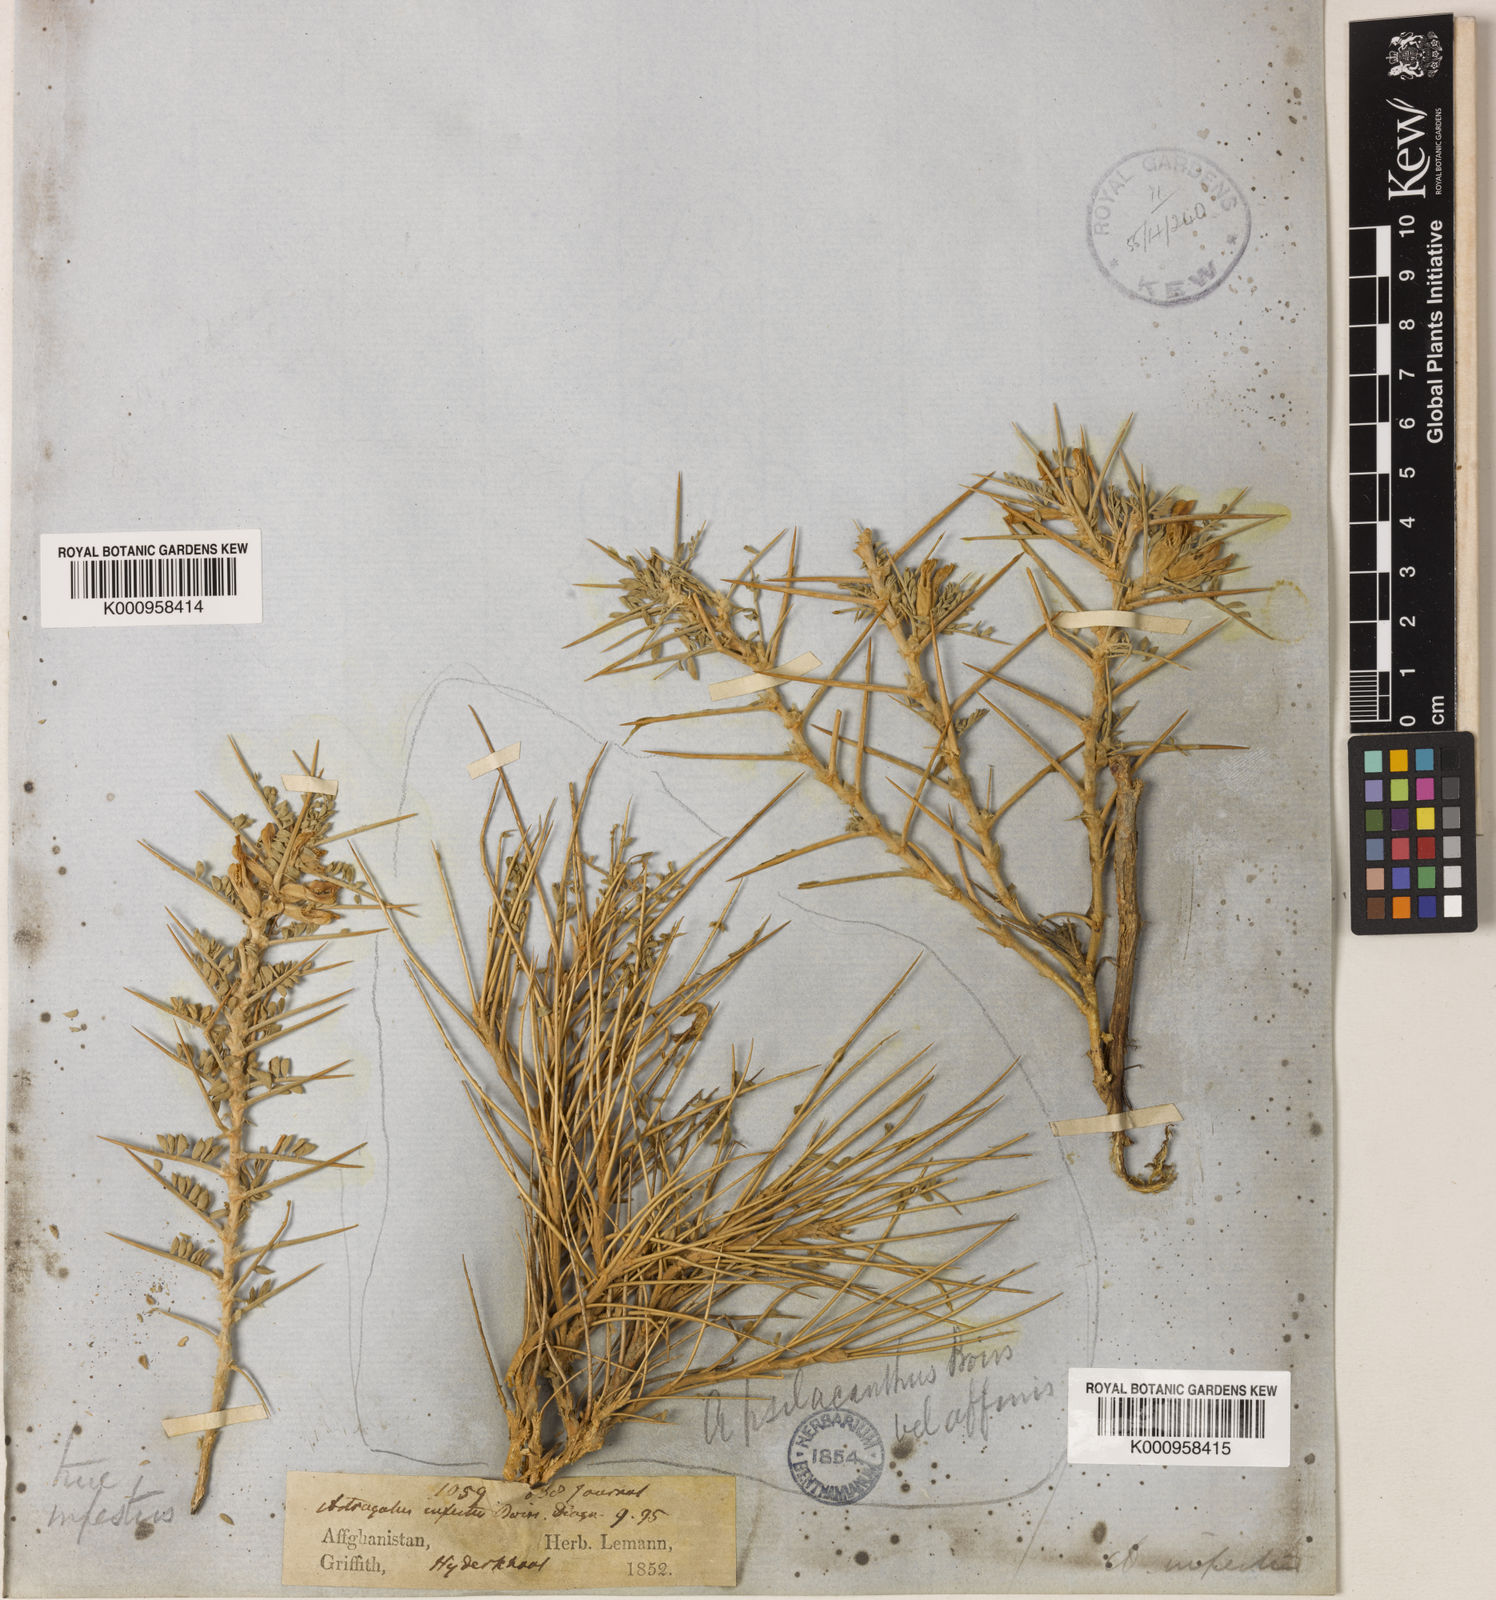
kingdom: Plantae
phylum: Tracheophyta
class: Magnoliopsida
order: Fabales
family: Fabaceae
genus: Astragalus
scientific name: Astragalus infestus
